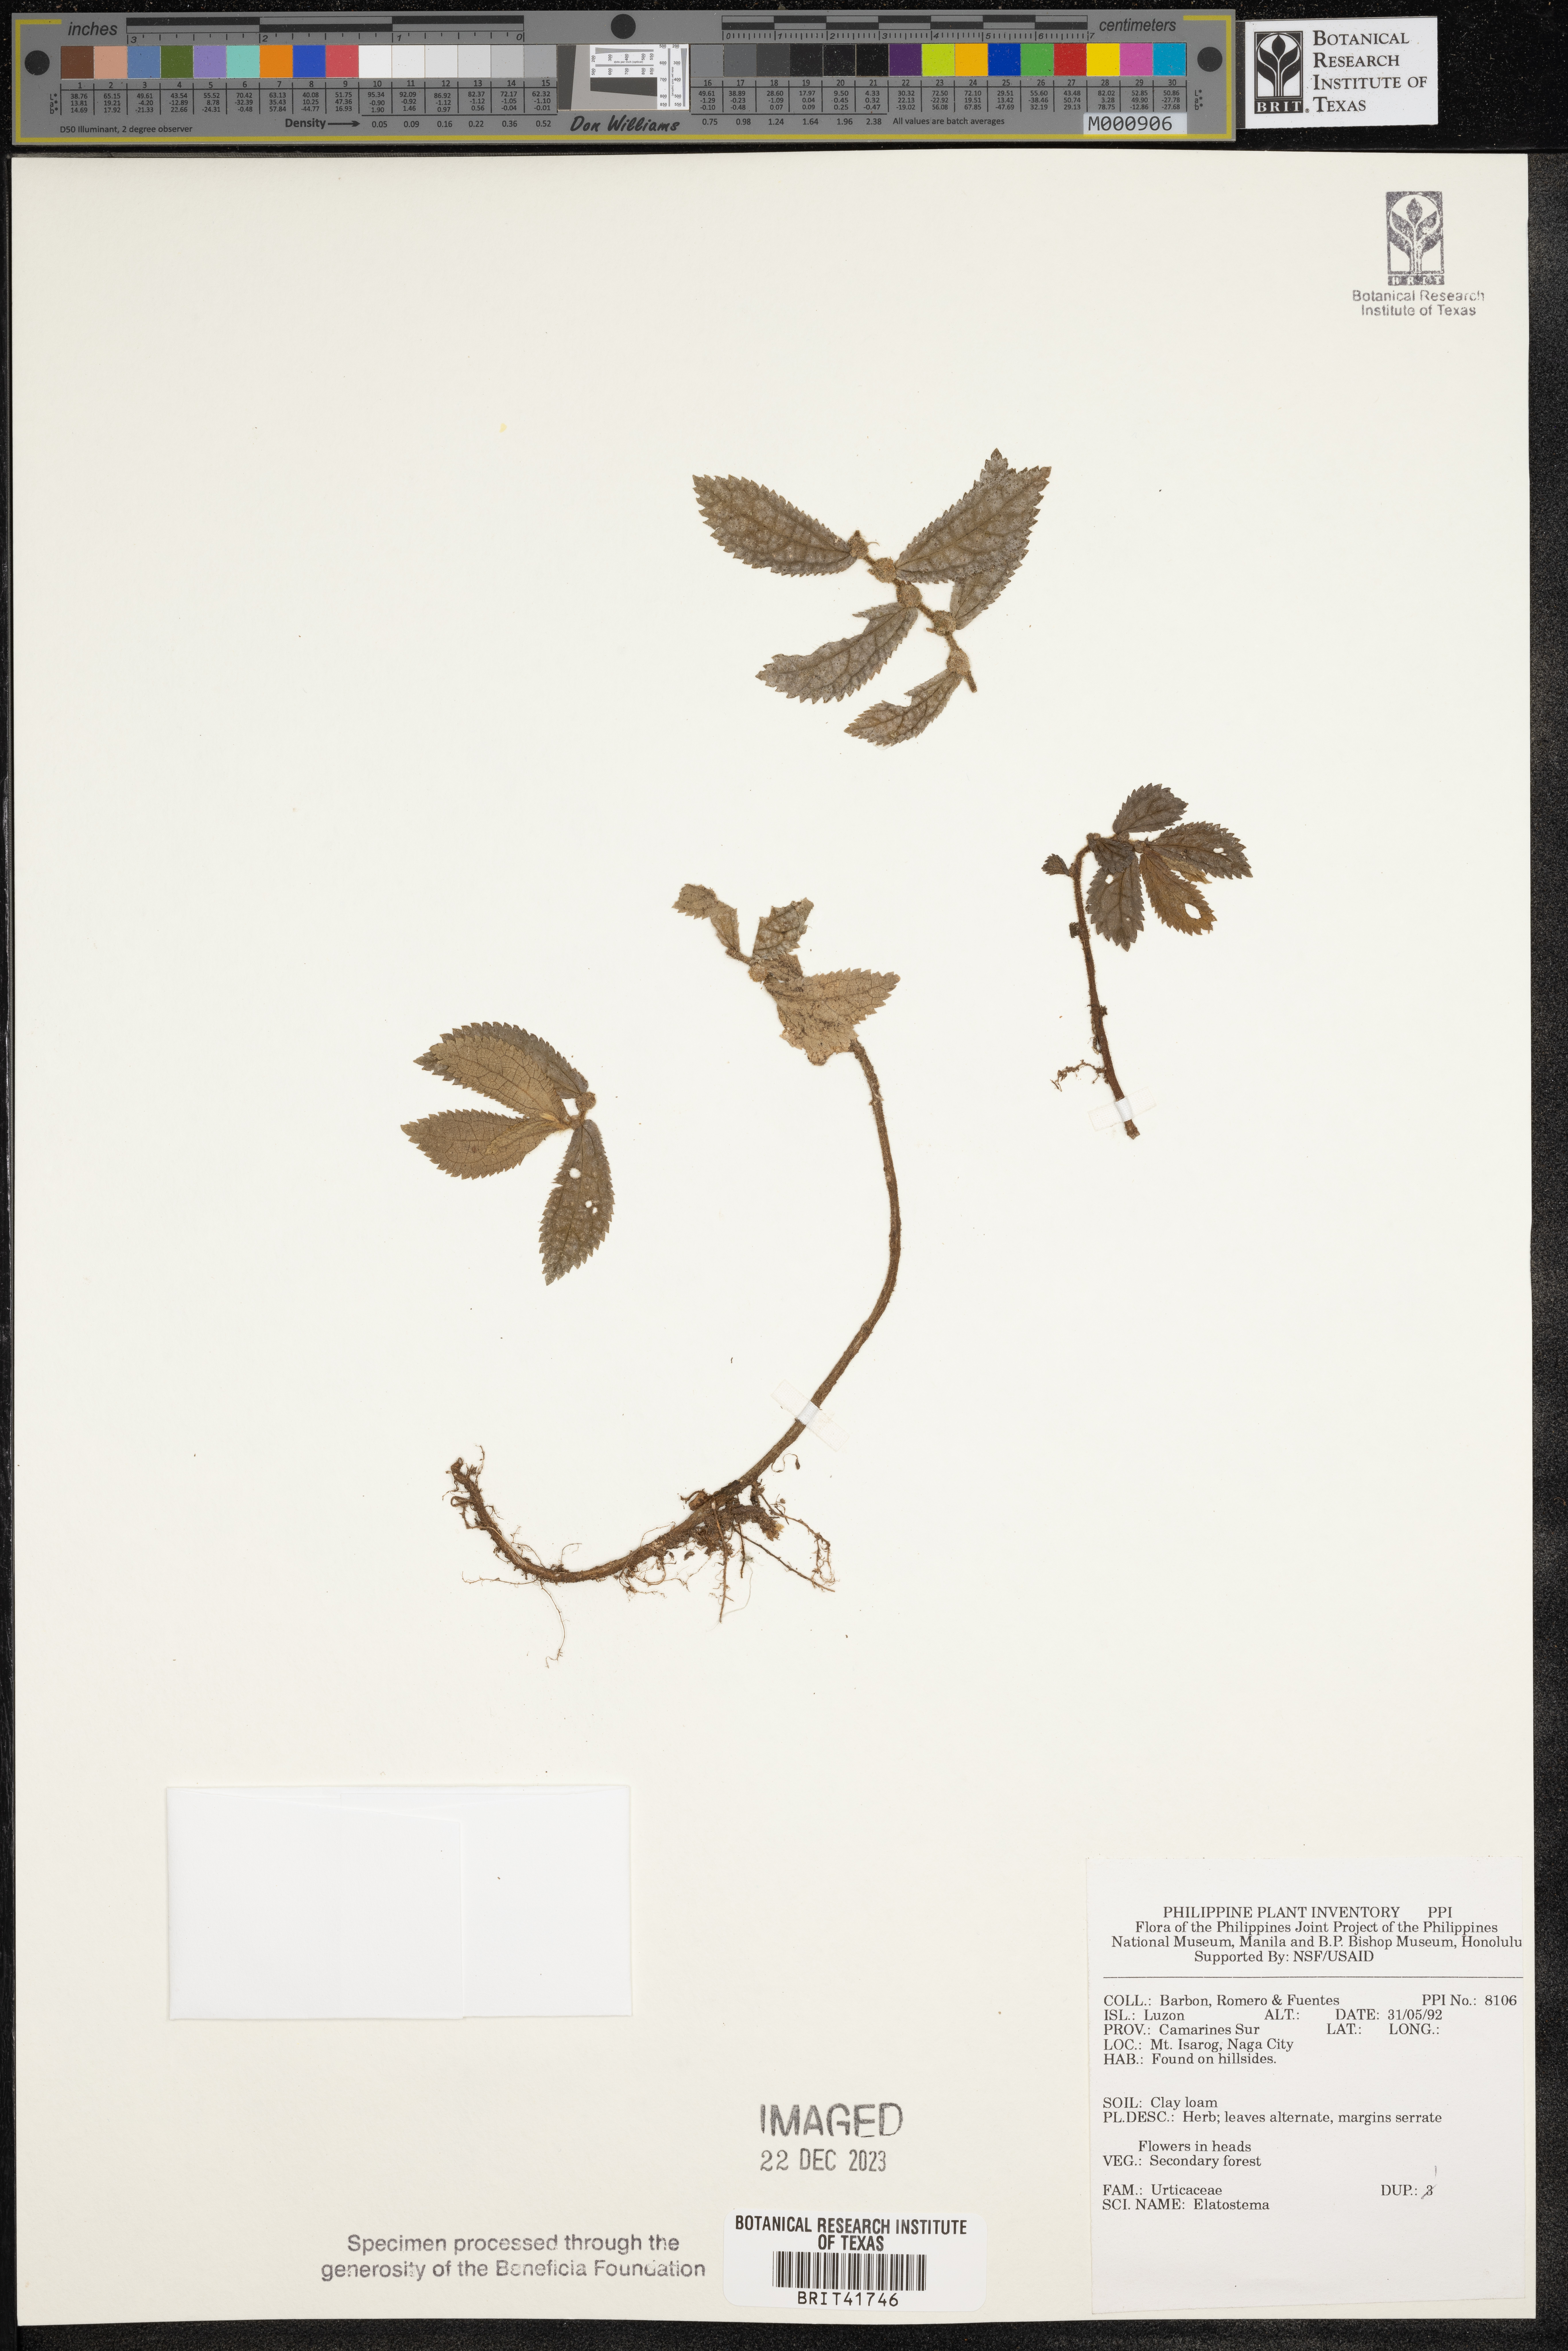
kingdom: Plantae
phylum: Tracheophyta
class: Magnoliopsida
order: Rosales
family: Urticaceae
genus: Elatostema
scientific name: Elatostema
